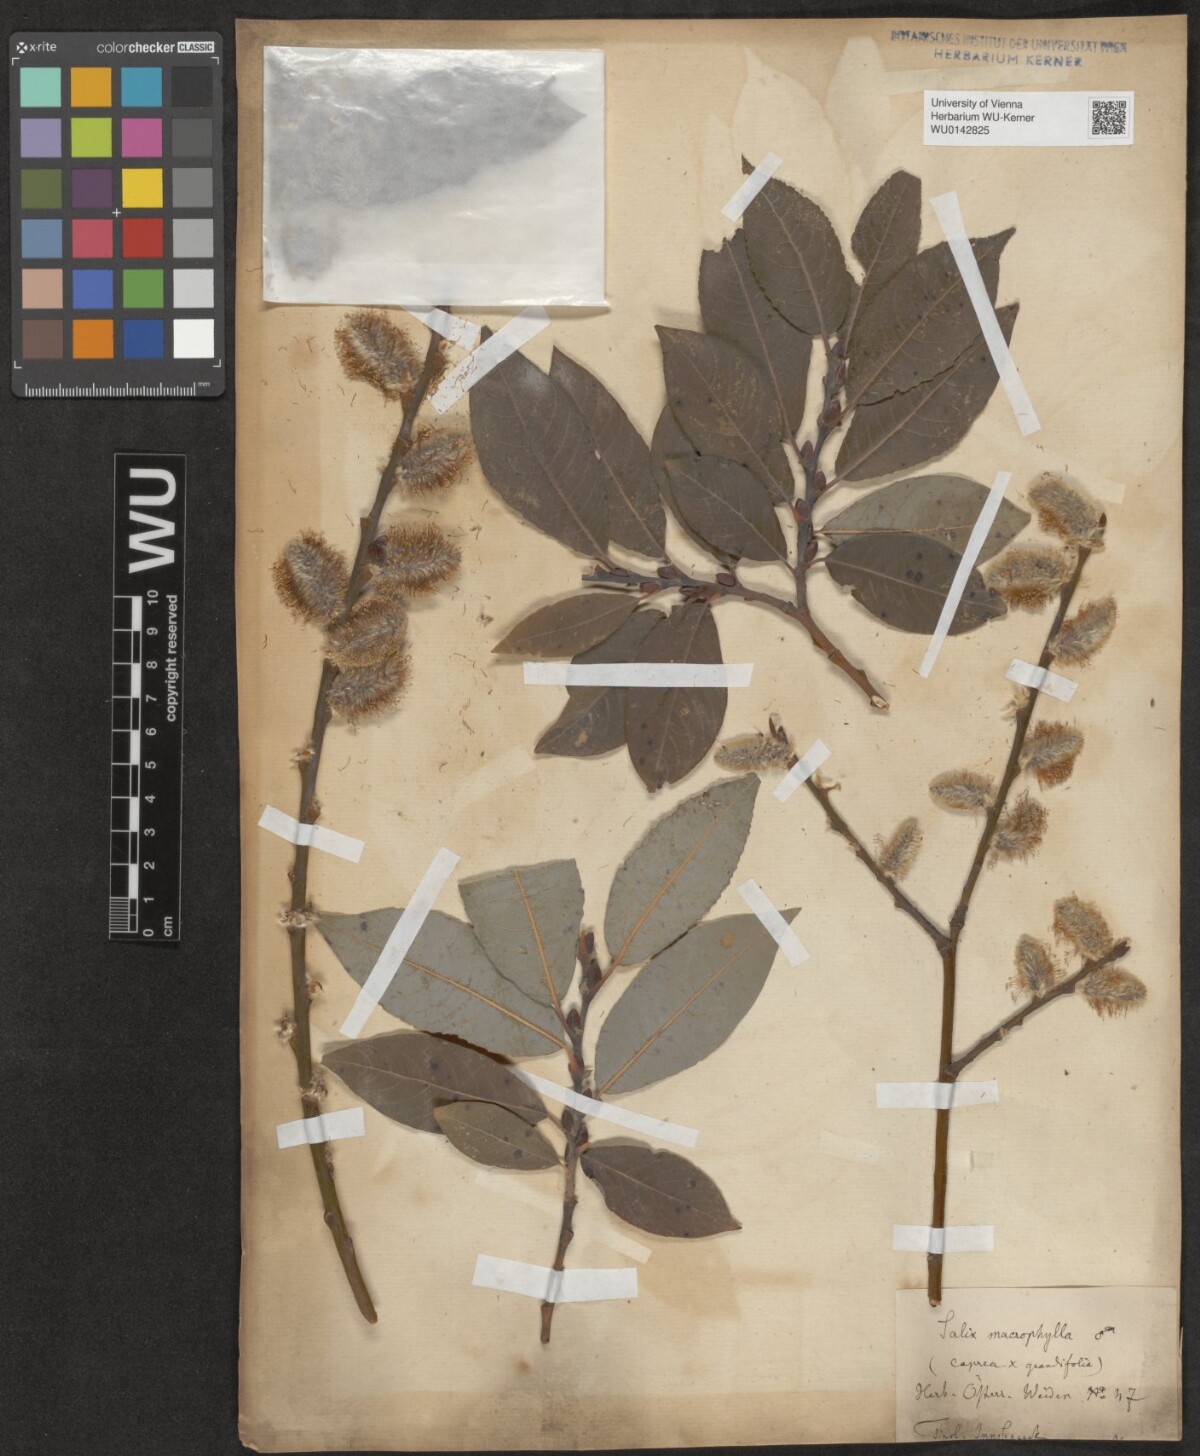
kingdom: Plantae
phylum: Tracheophyta
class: Magnoliopsida
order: Malpighiales
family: Salicaceae
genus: Salix
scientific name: Salix macrophylla
